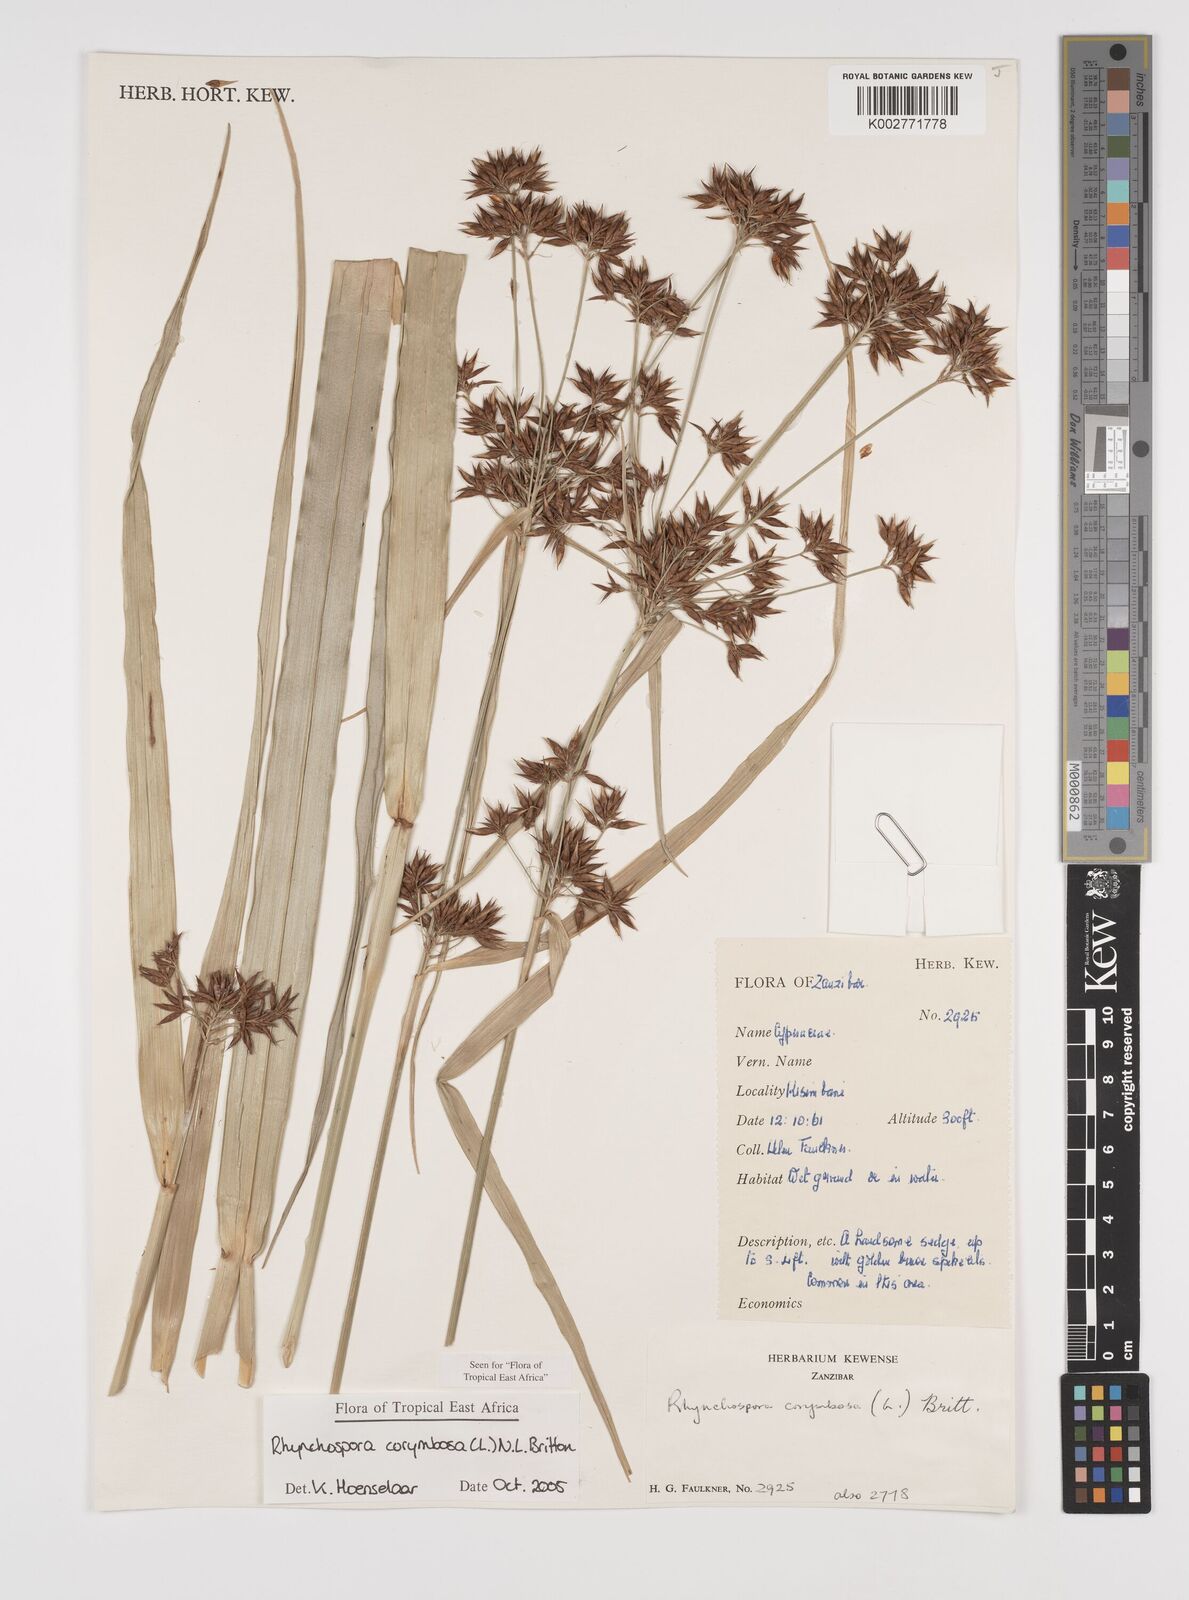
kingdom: Plantae
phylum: Tracheophyta
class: Liliopsida
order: Poales
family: Cyperaceae
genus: Rhynchospora
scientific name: Rhynchospora corymbosa
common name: Golden beak sedge
